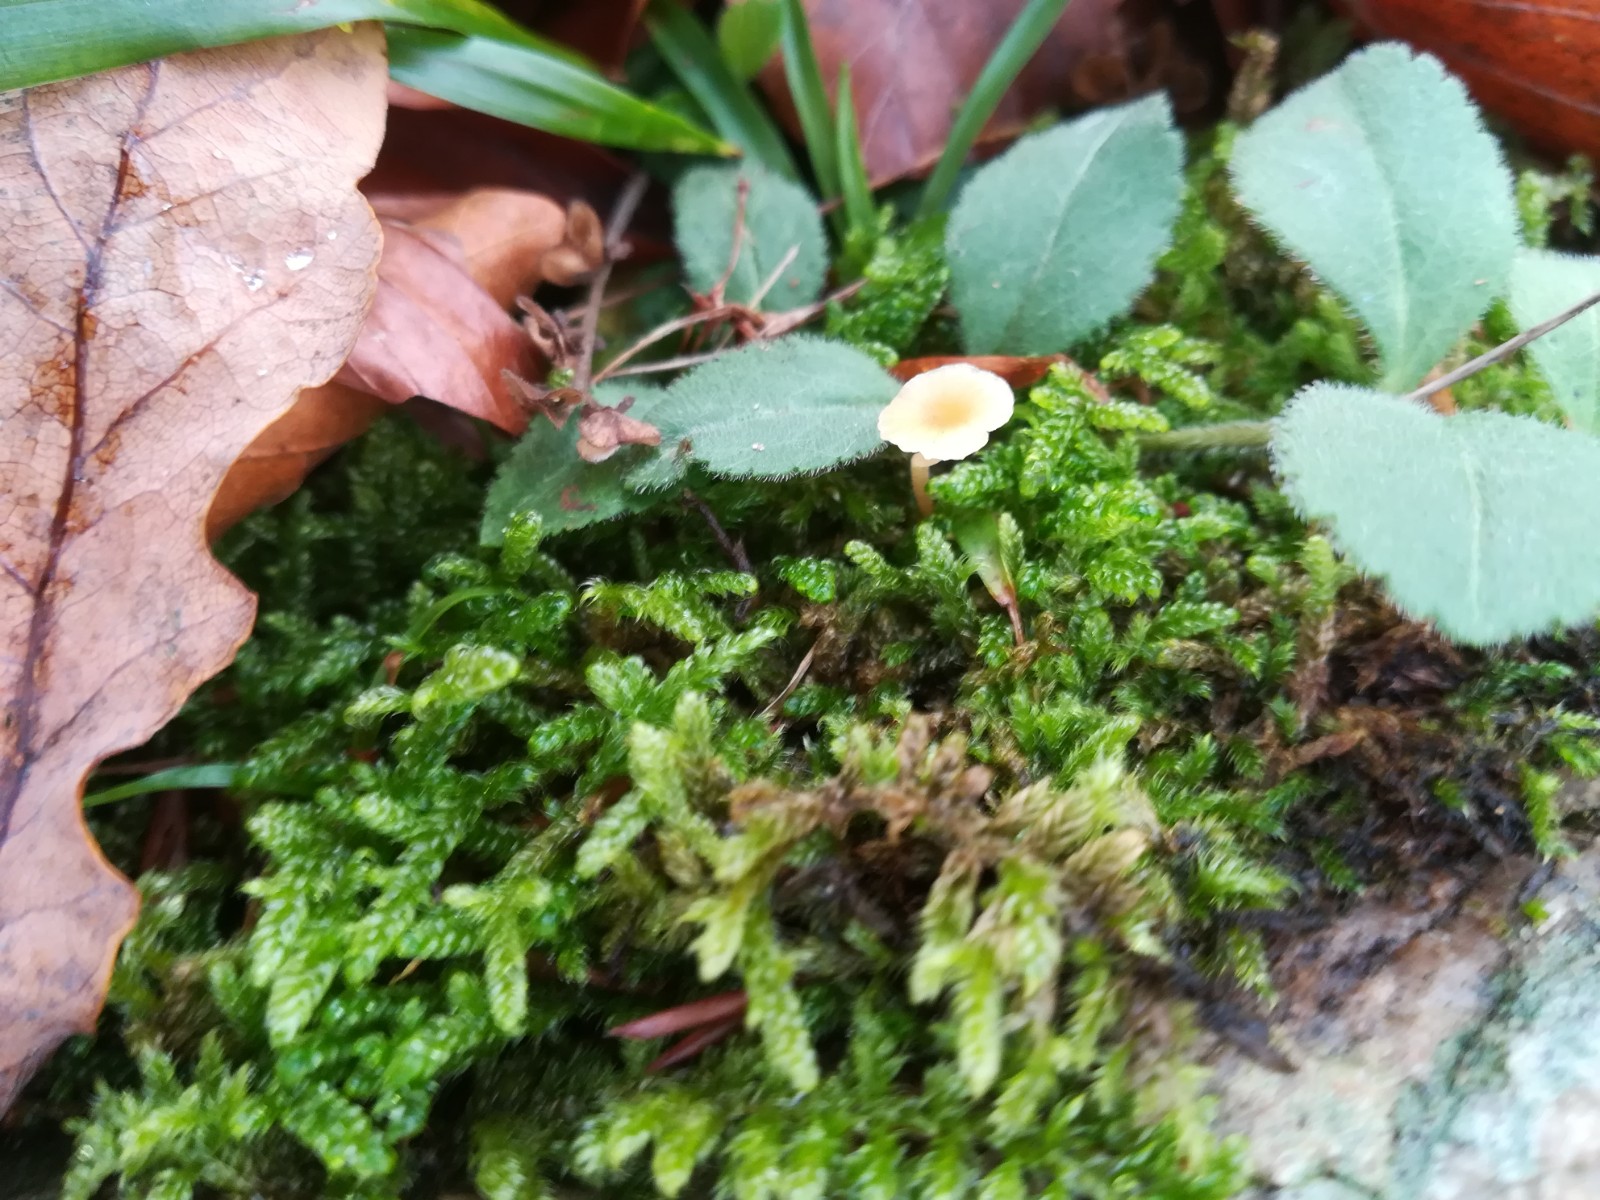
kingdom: Fungi
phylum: Basidiomycota
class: Agaricomycetes
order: Hymenochaetales
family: Rickenellaceae
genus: Rickenella
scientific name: Rickenella fibula
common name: orange mosnavlehat
